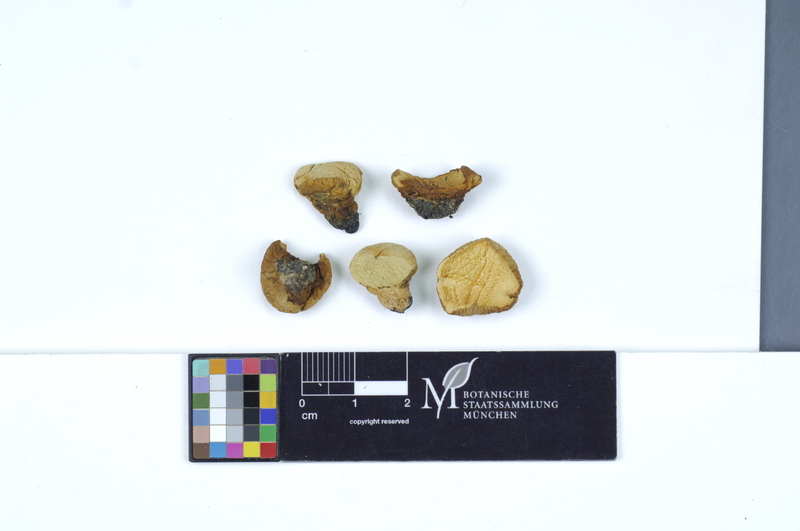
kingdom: Fungi
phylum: Basidiomycota
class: Agaricomycetes
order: Agaricales
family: Lycoperdaceae
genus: Lycoperdon
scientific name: Lycoperdon pratense
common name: Meadow puffball
